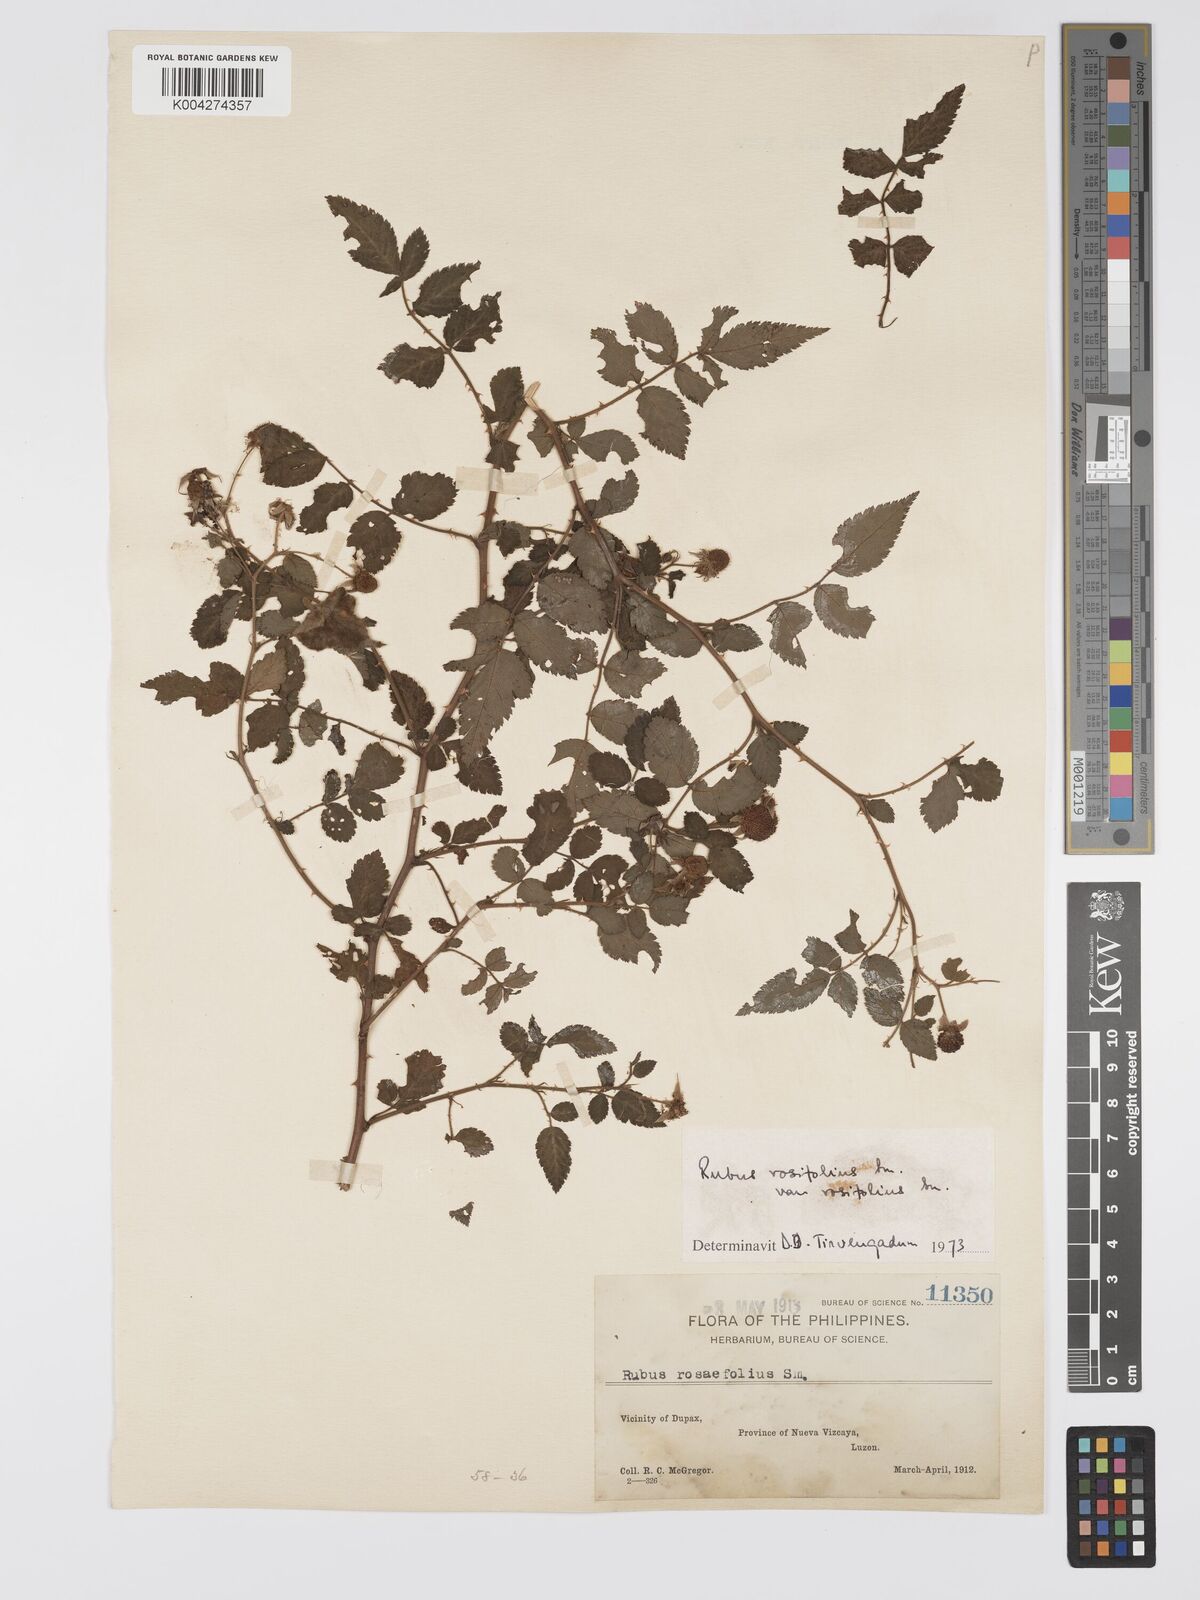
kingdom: Plantae
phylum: Tracheophyta
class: Magnoliopsida
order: Rosales
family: Rosaceae
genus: Rubus
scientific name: Rubus
